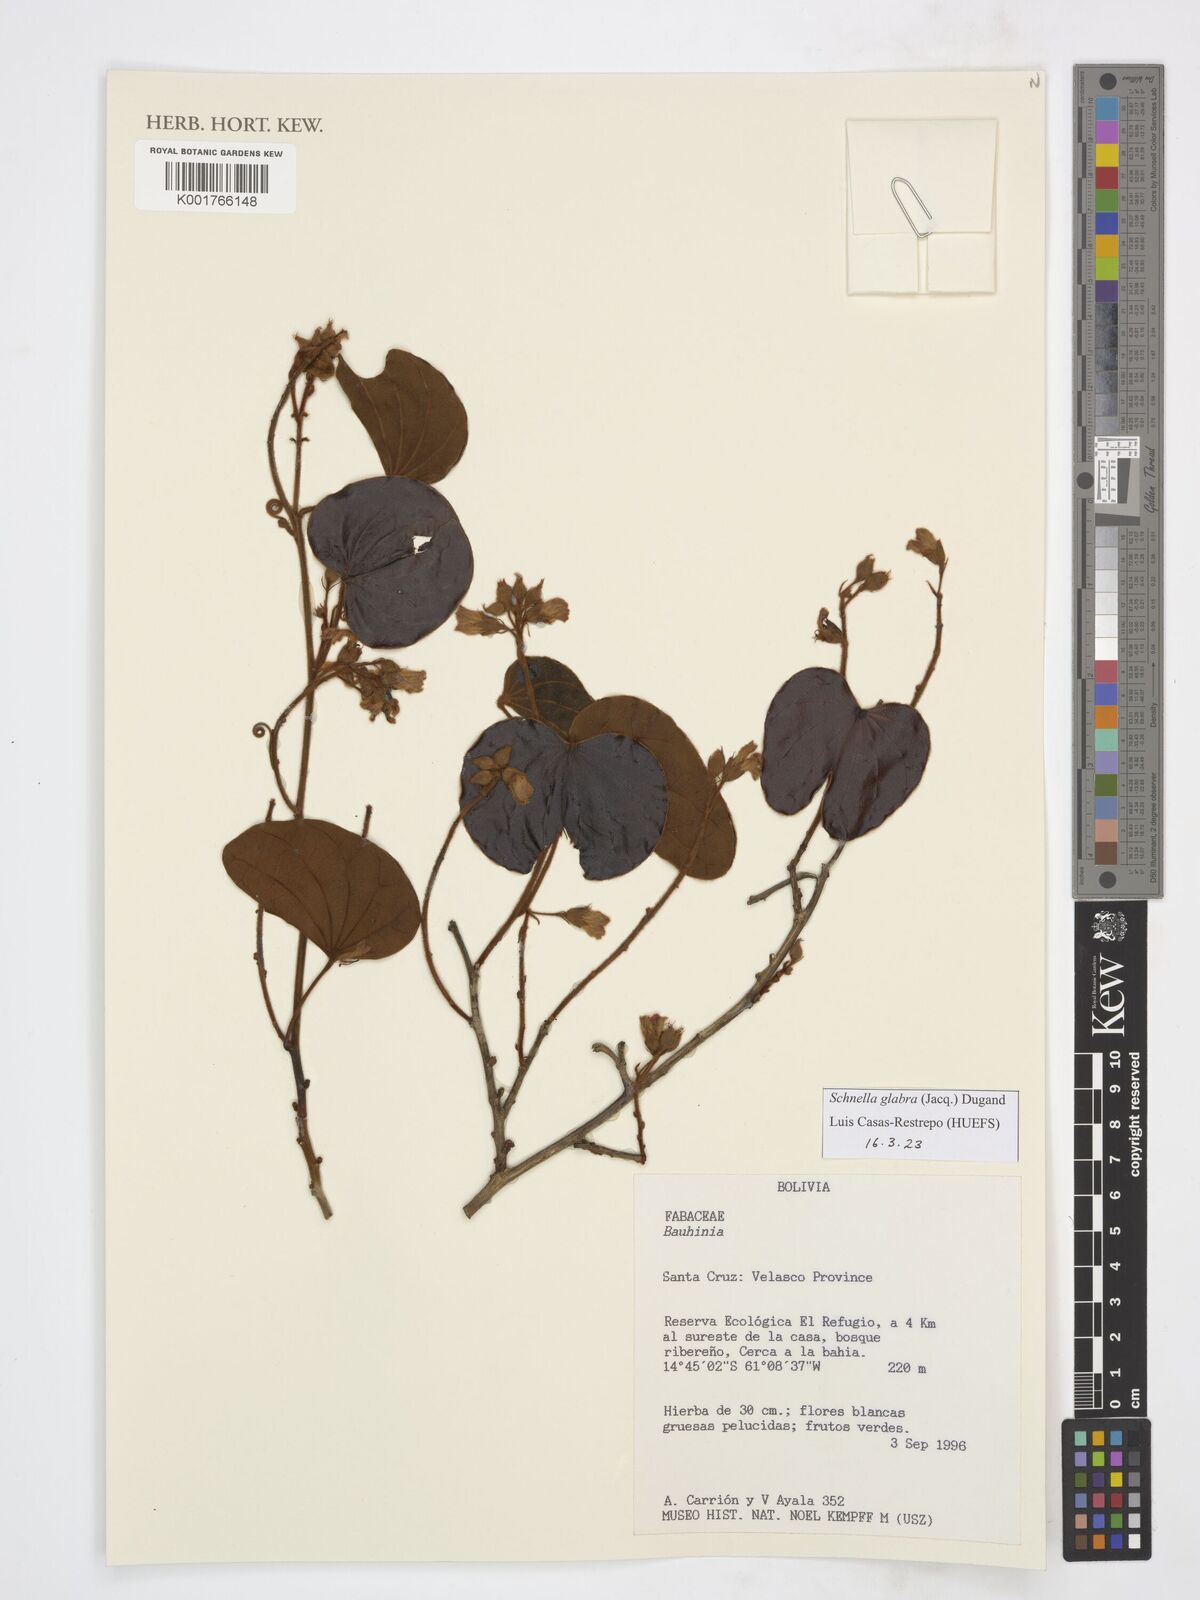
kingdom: Plantae
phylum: Tracheophyta
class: Magnoliopsida
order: Fabales
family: Fabaceae
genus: Schnella
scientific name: Schnella glabra
